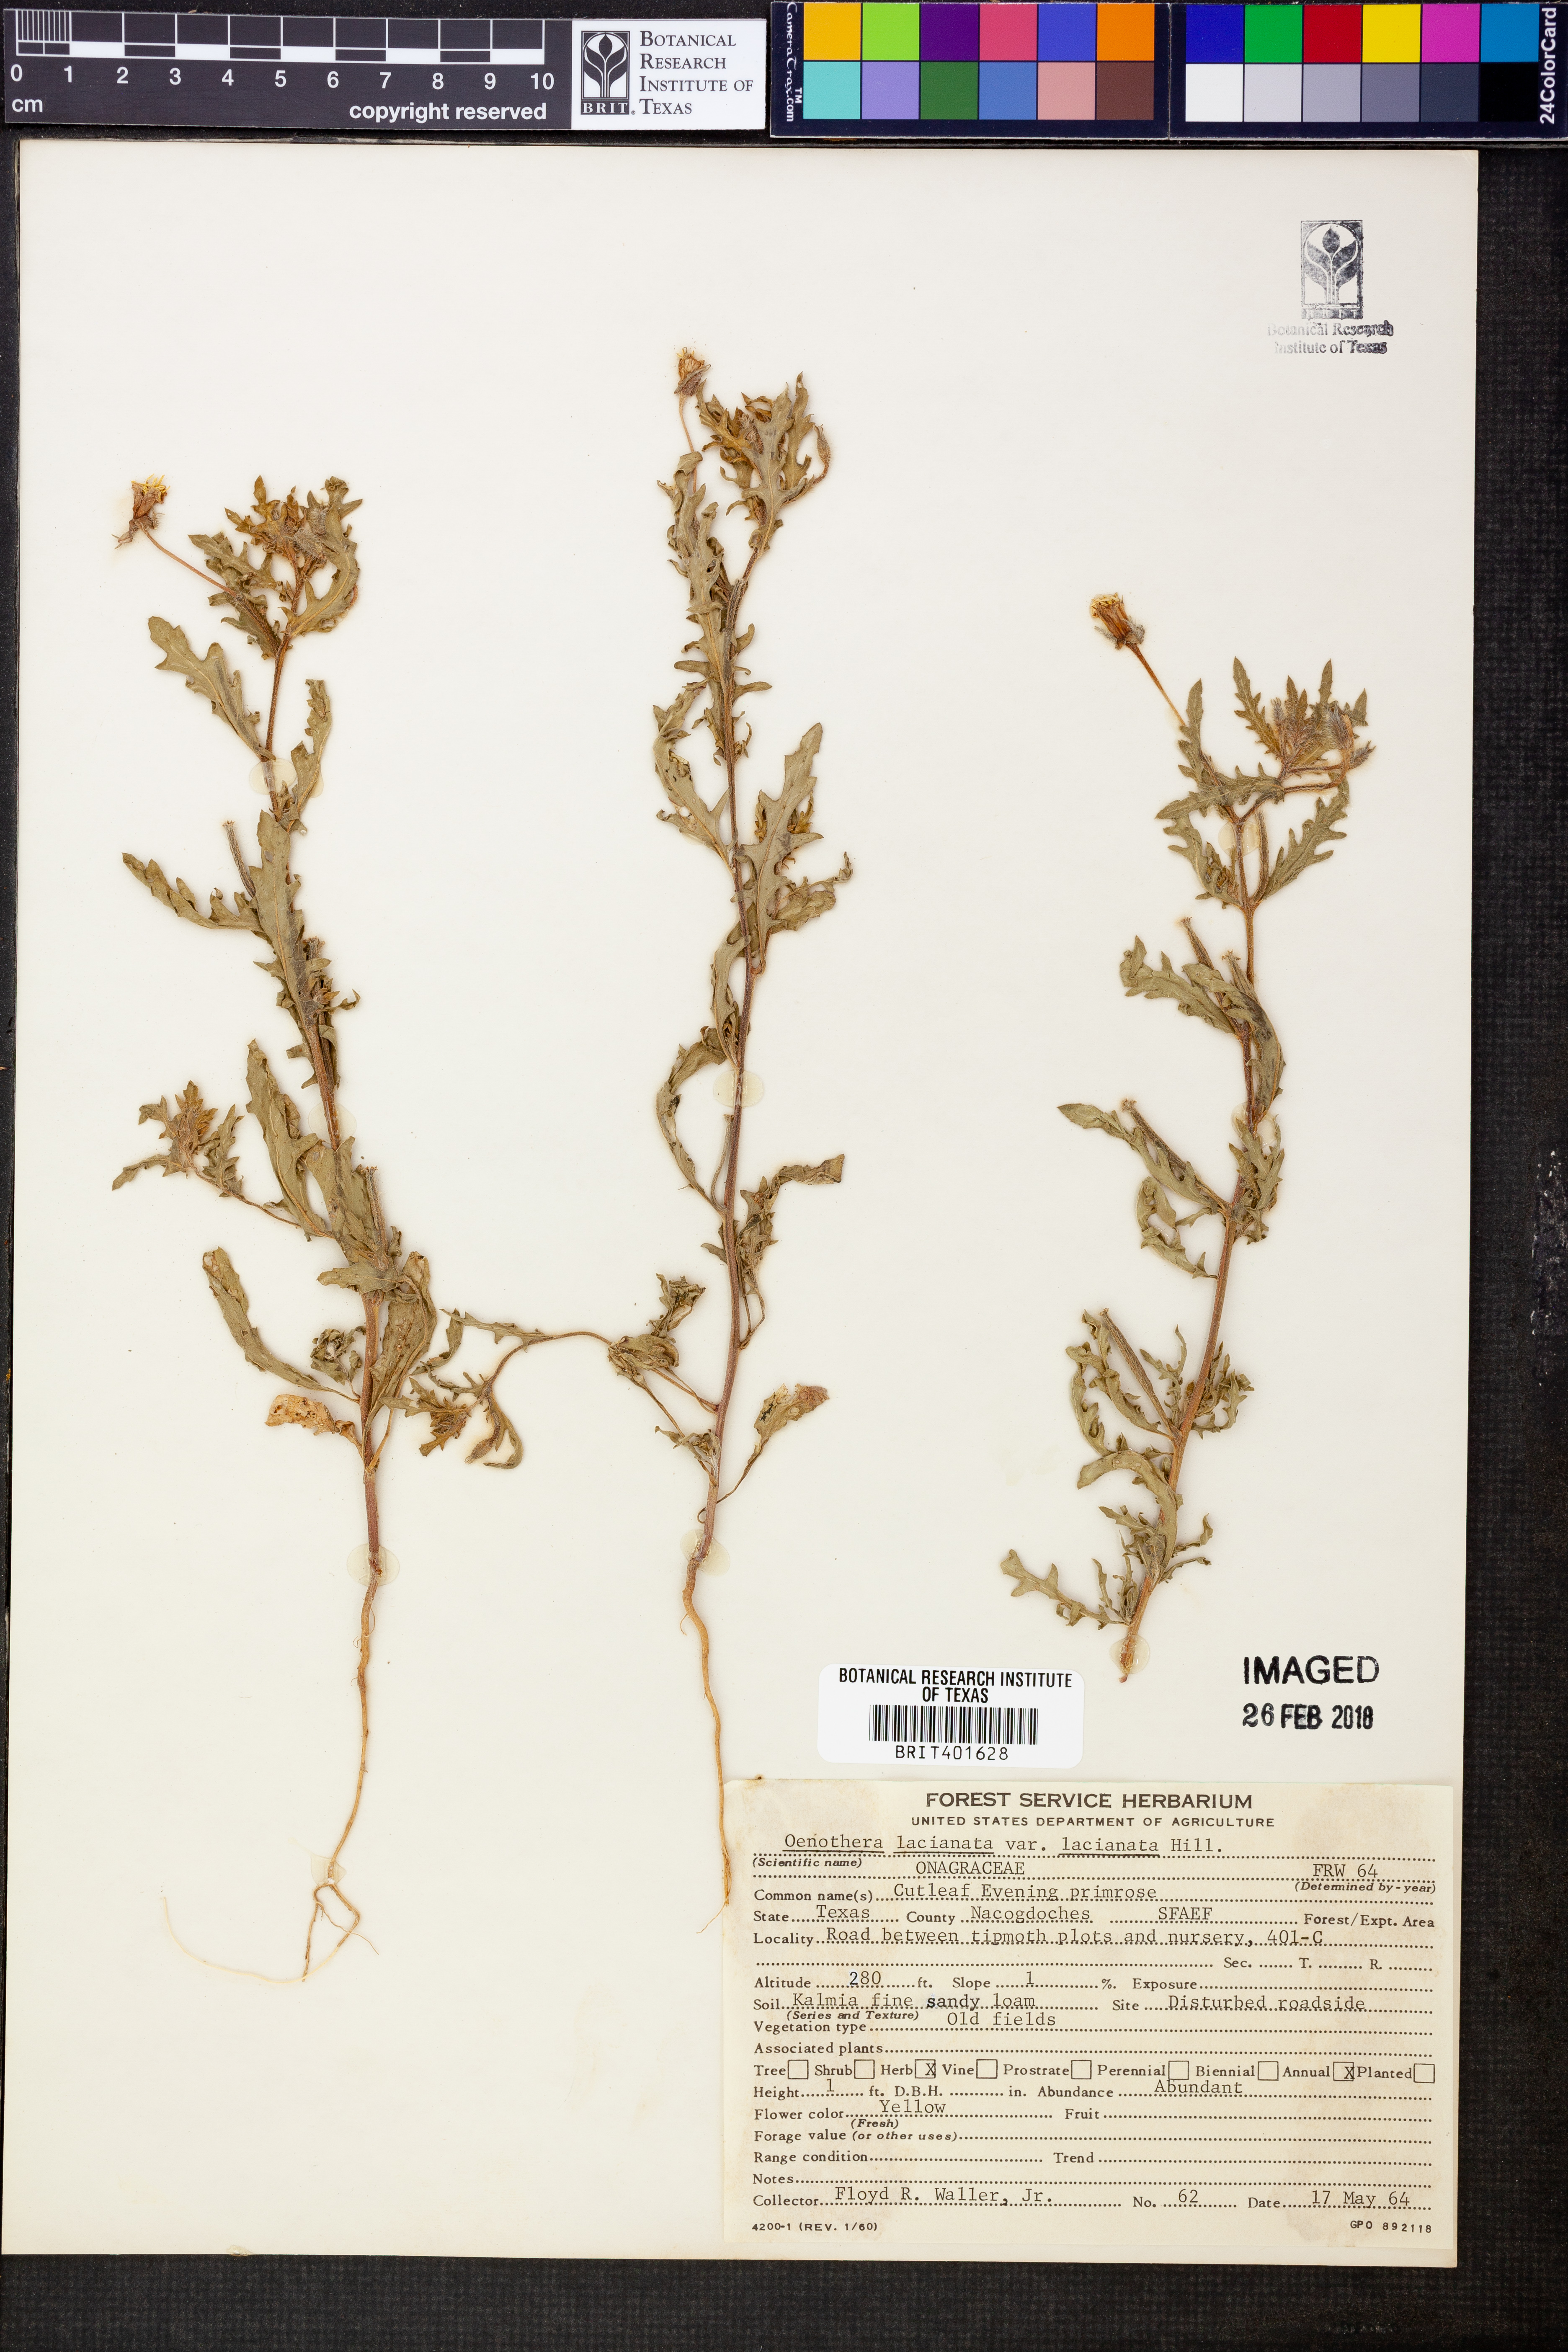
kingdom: Plantae
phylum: Tracheophyta
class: Magnoliopsida
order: Myrtales
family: Onagraceae
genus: Oenothera
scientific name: Oenothera laciniata
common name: Cut-leaved evening-primrose
